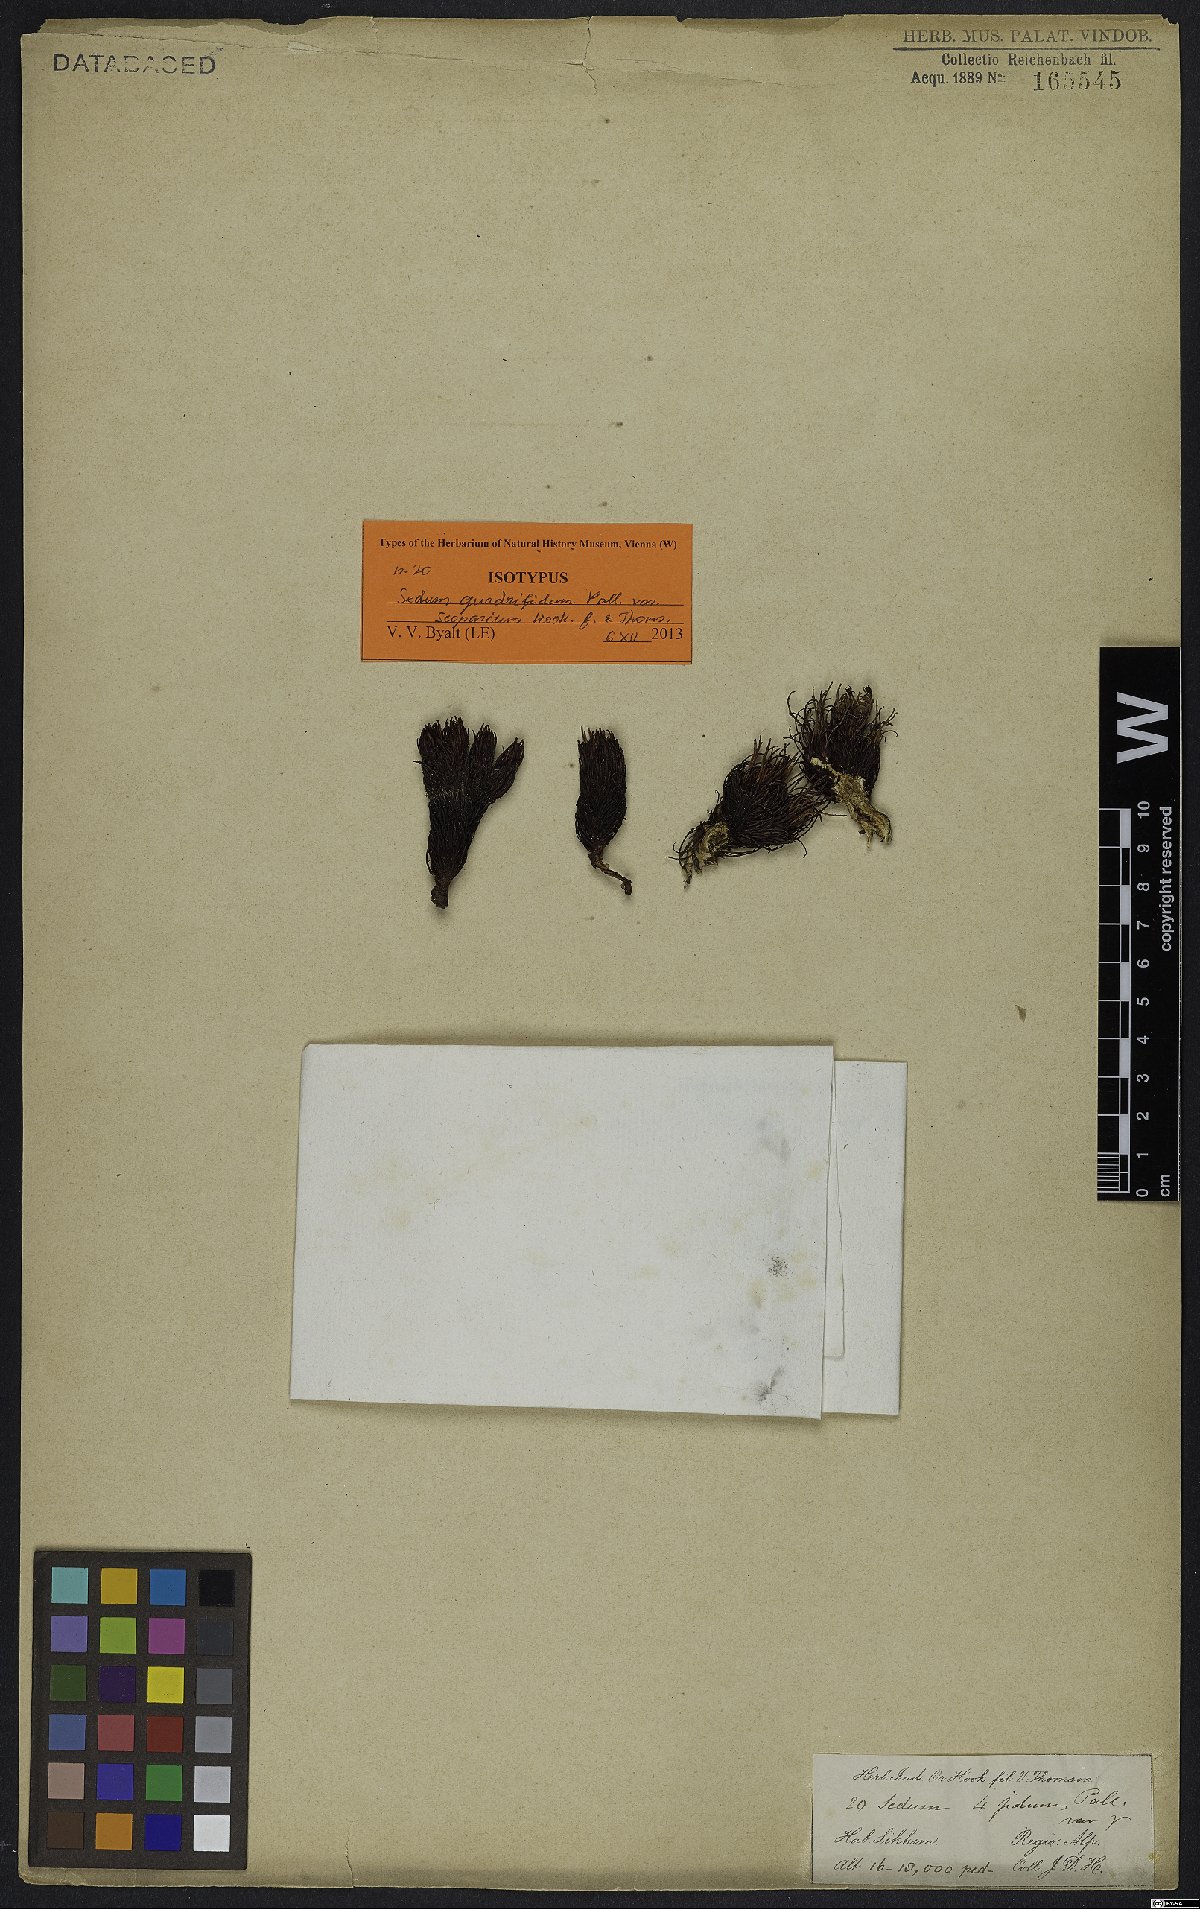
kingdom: Plantae
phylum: Tracheophyta
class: Magnoliopsida
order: Saxifragales
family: Crassulaceae
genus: Rhodiola
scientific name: Rhodiola quadrifida
